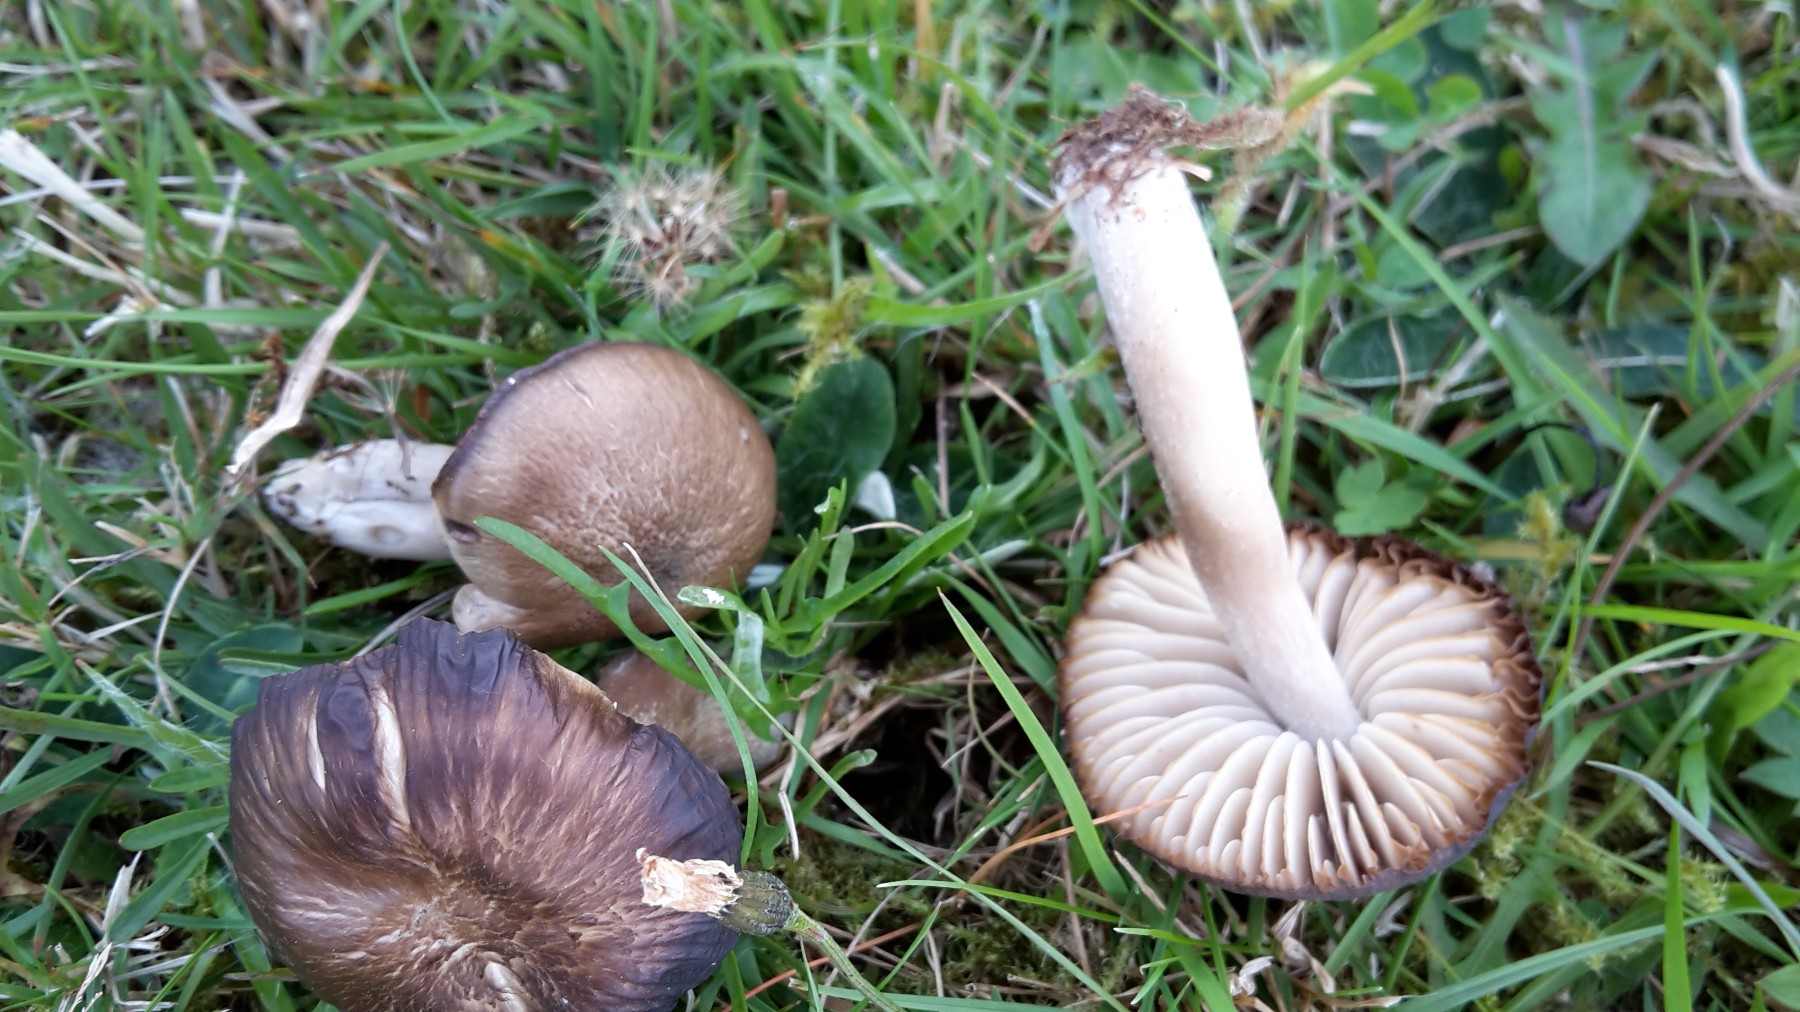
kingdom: Fungi
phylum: Basidiomycota
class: Agaricomycetes
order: Agaricales
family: Hygrophoraceae
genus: Neohygrocybe
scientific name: Neohygrocybe nitrata
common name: stinkende vokshat
